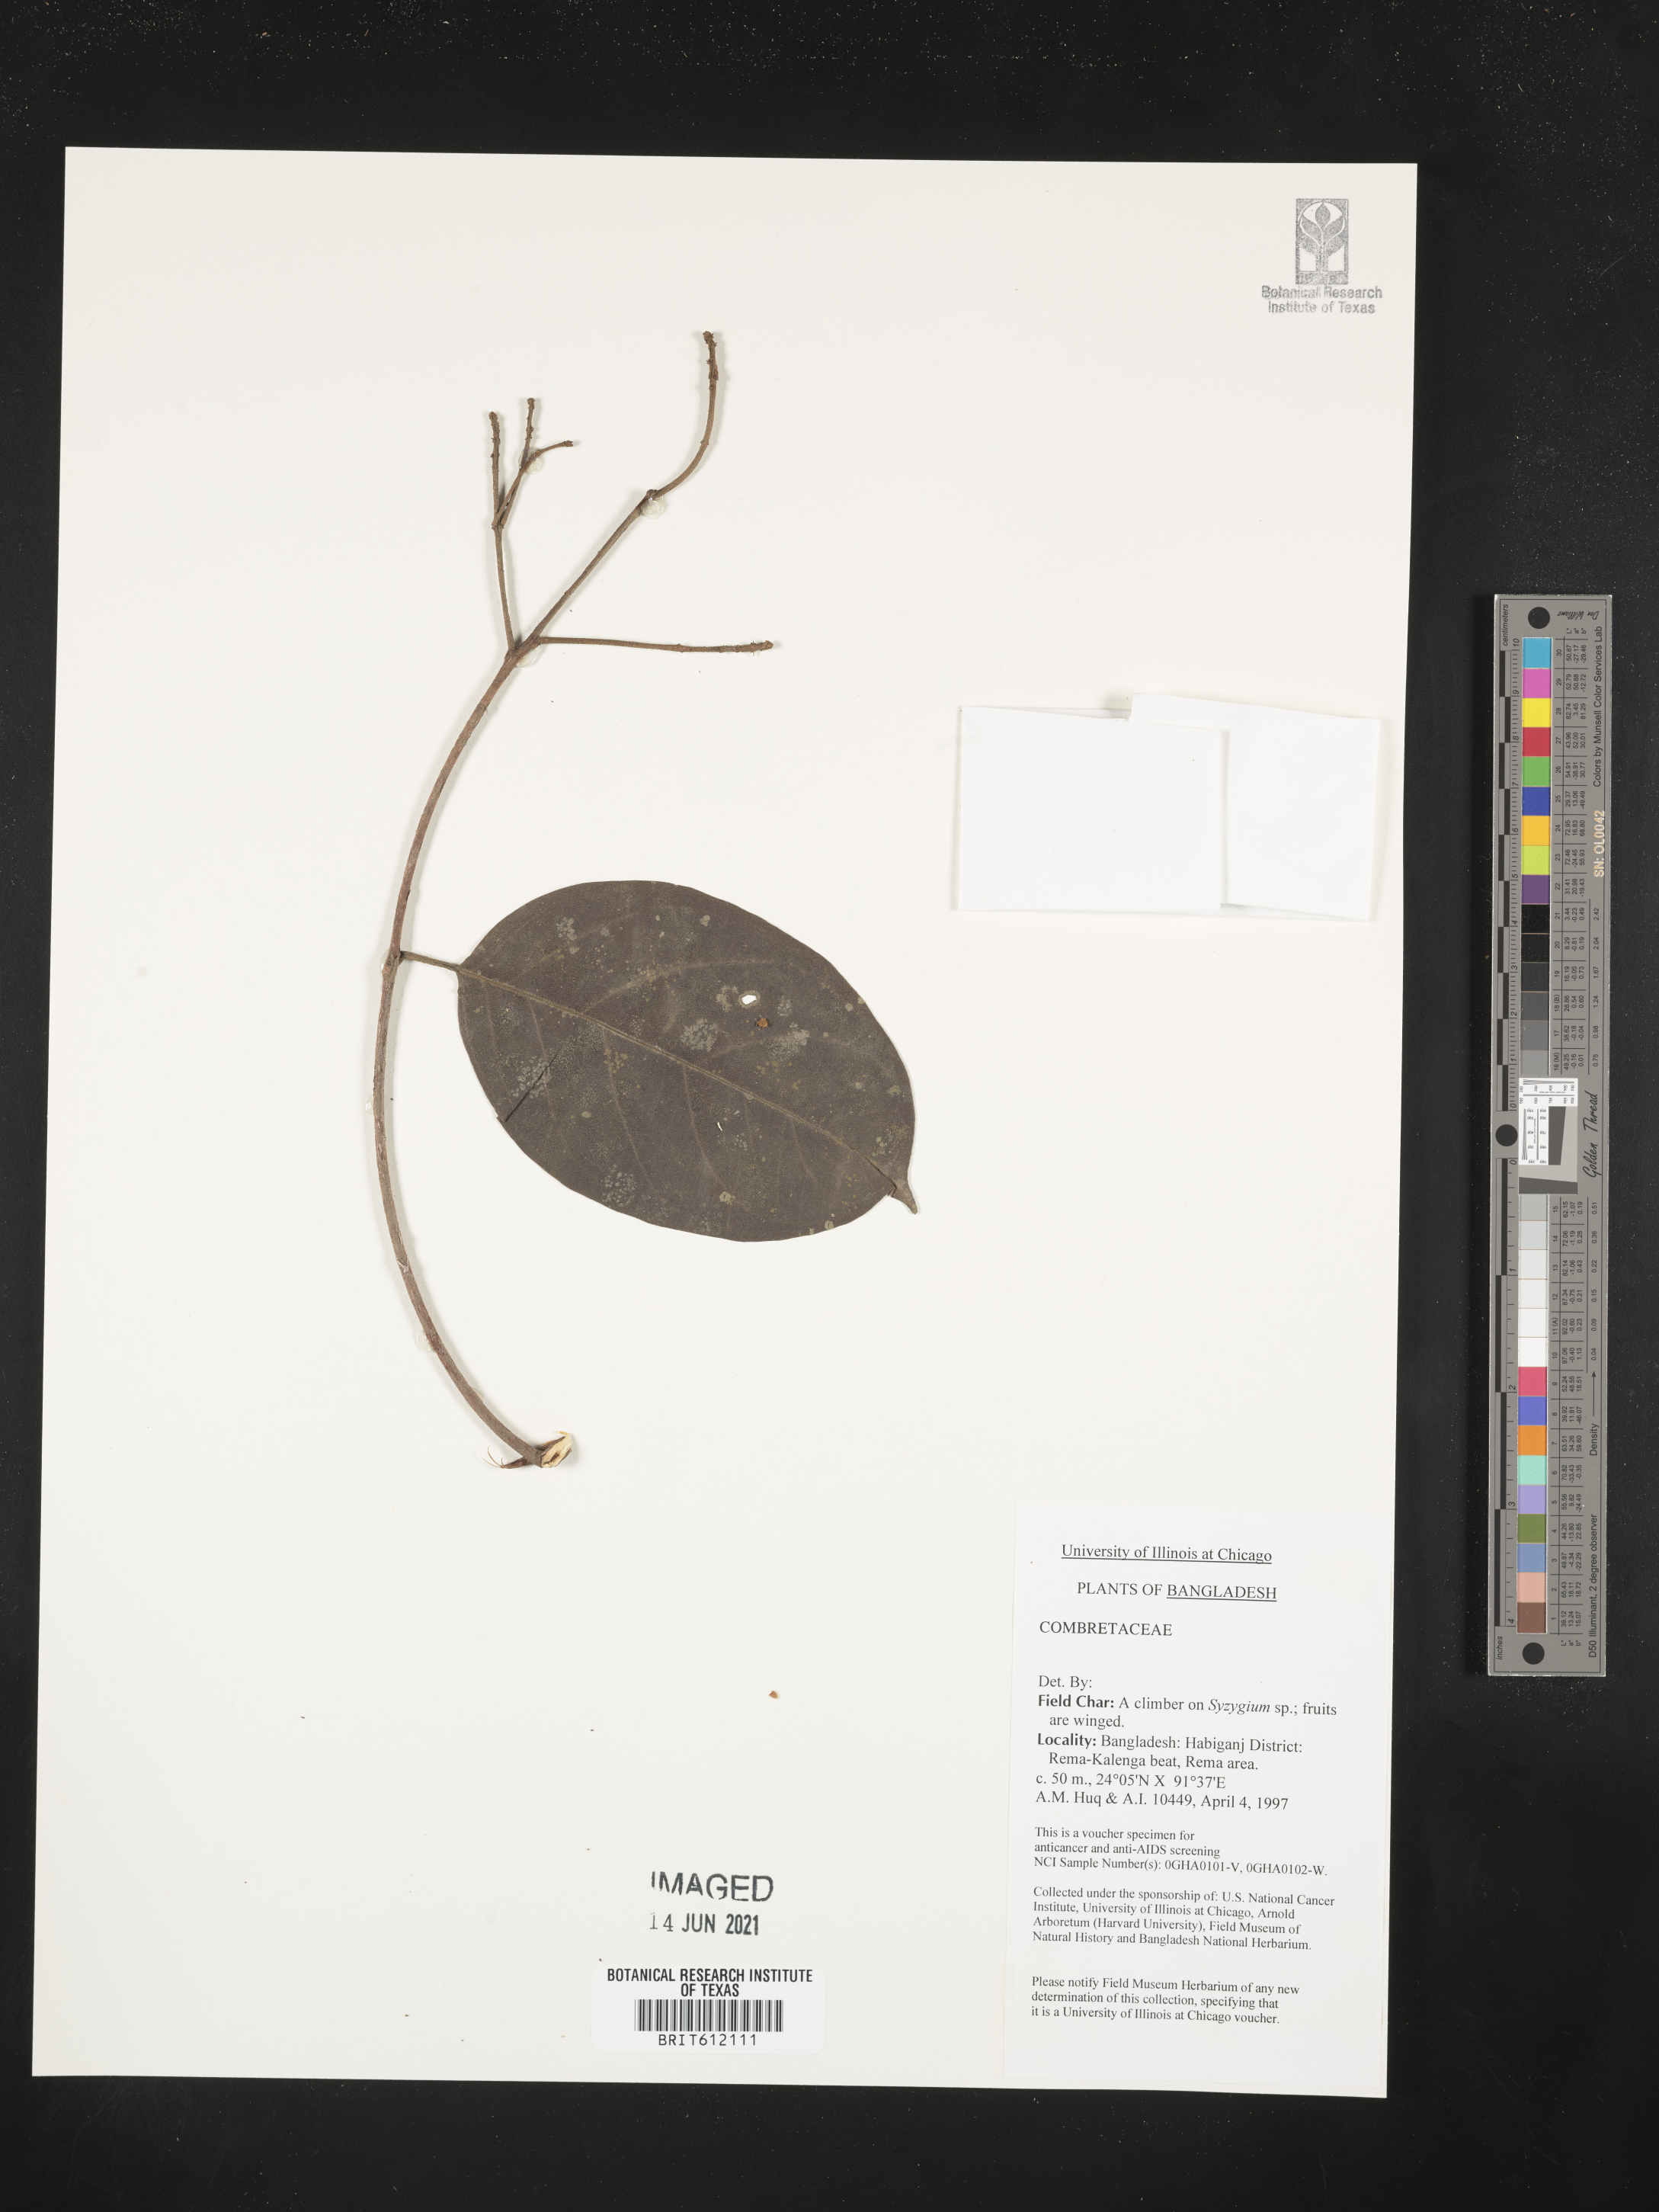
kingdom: Plantae
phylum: Tracheophyta
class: Magnoliopsida
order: Myrtales
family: Combretaceae
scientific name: Combretaceae
